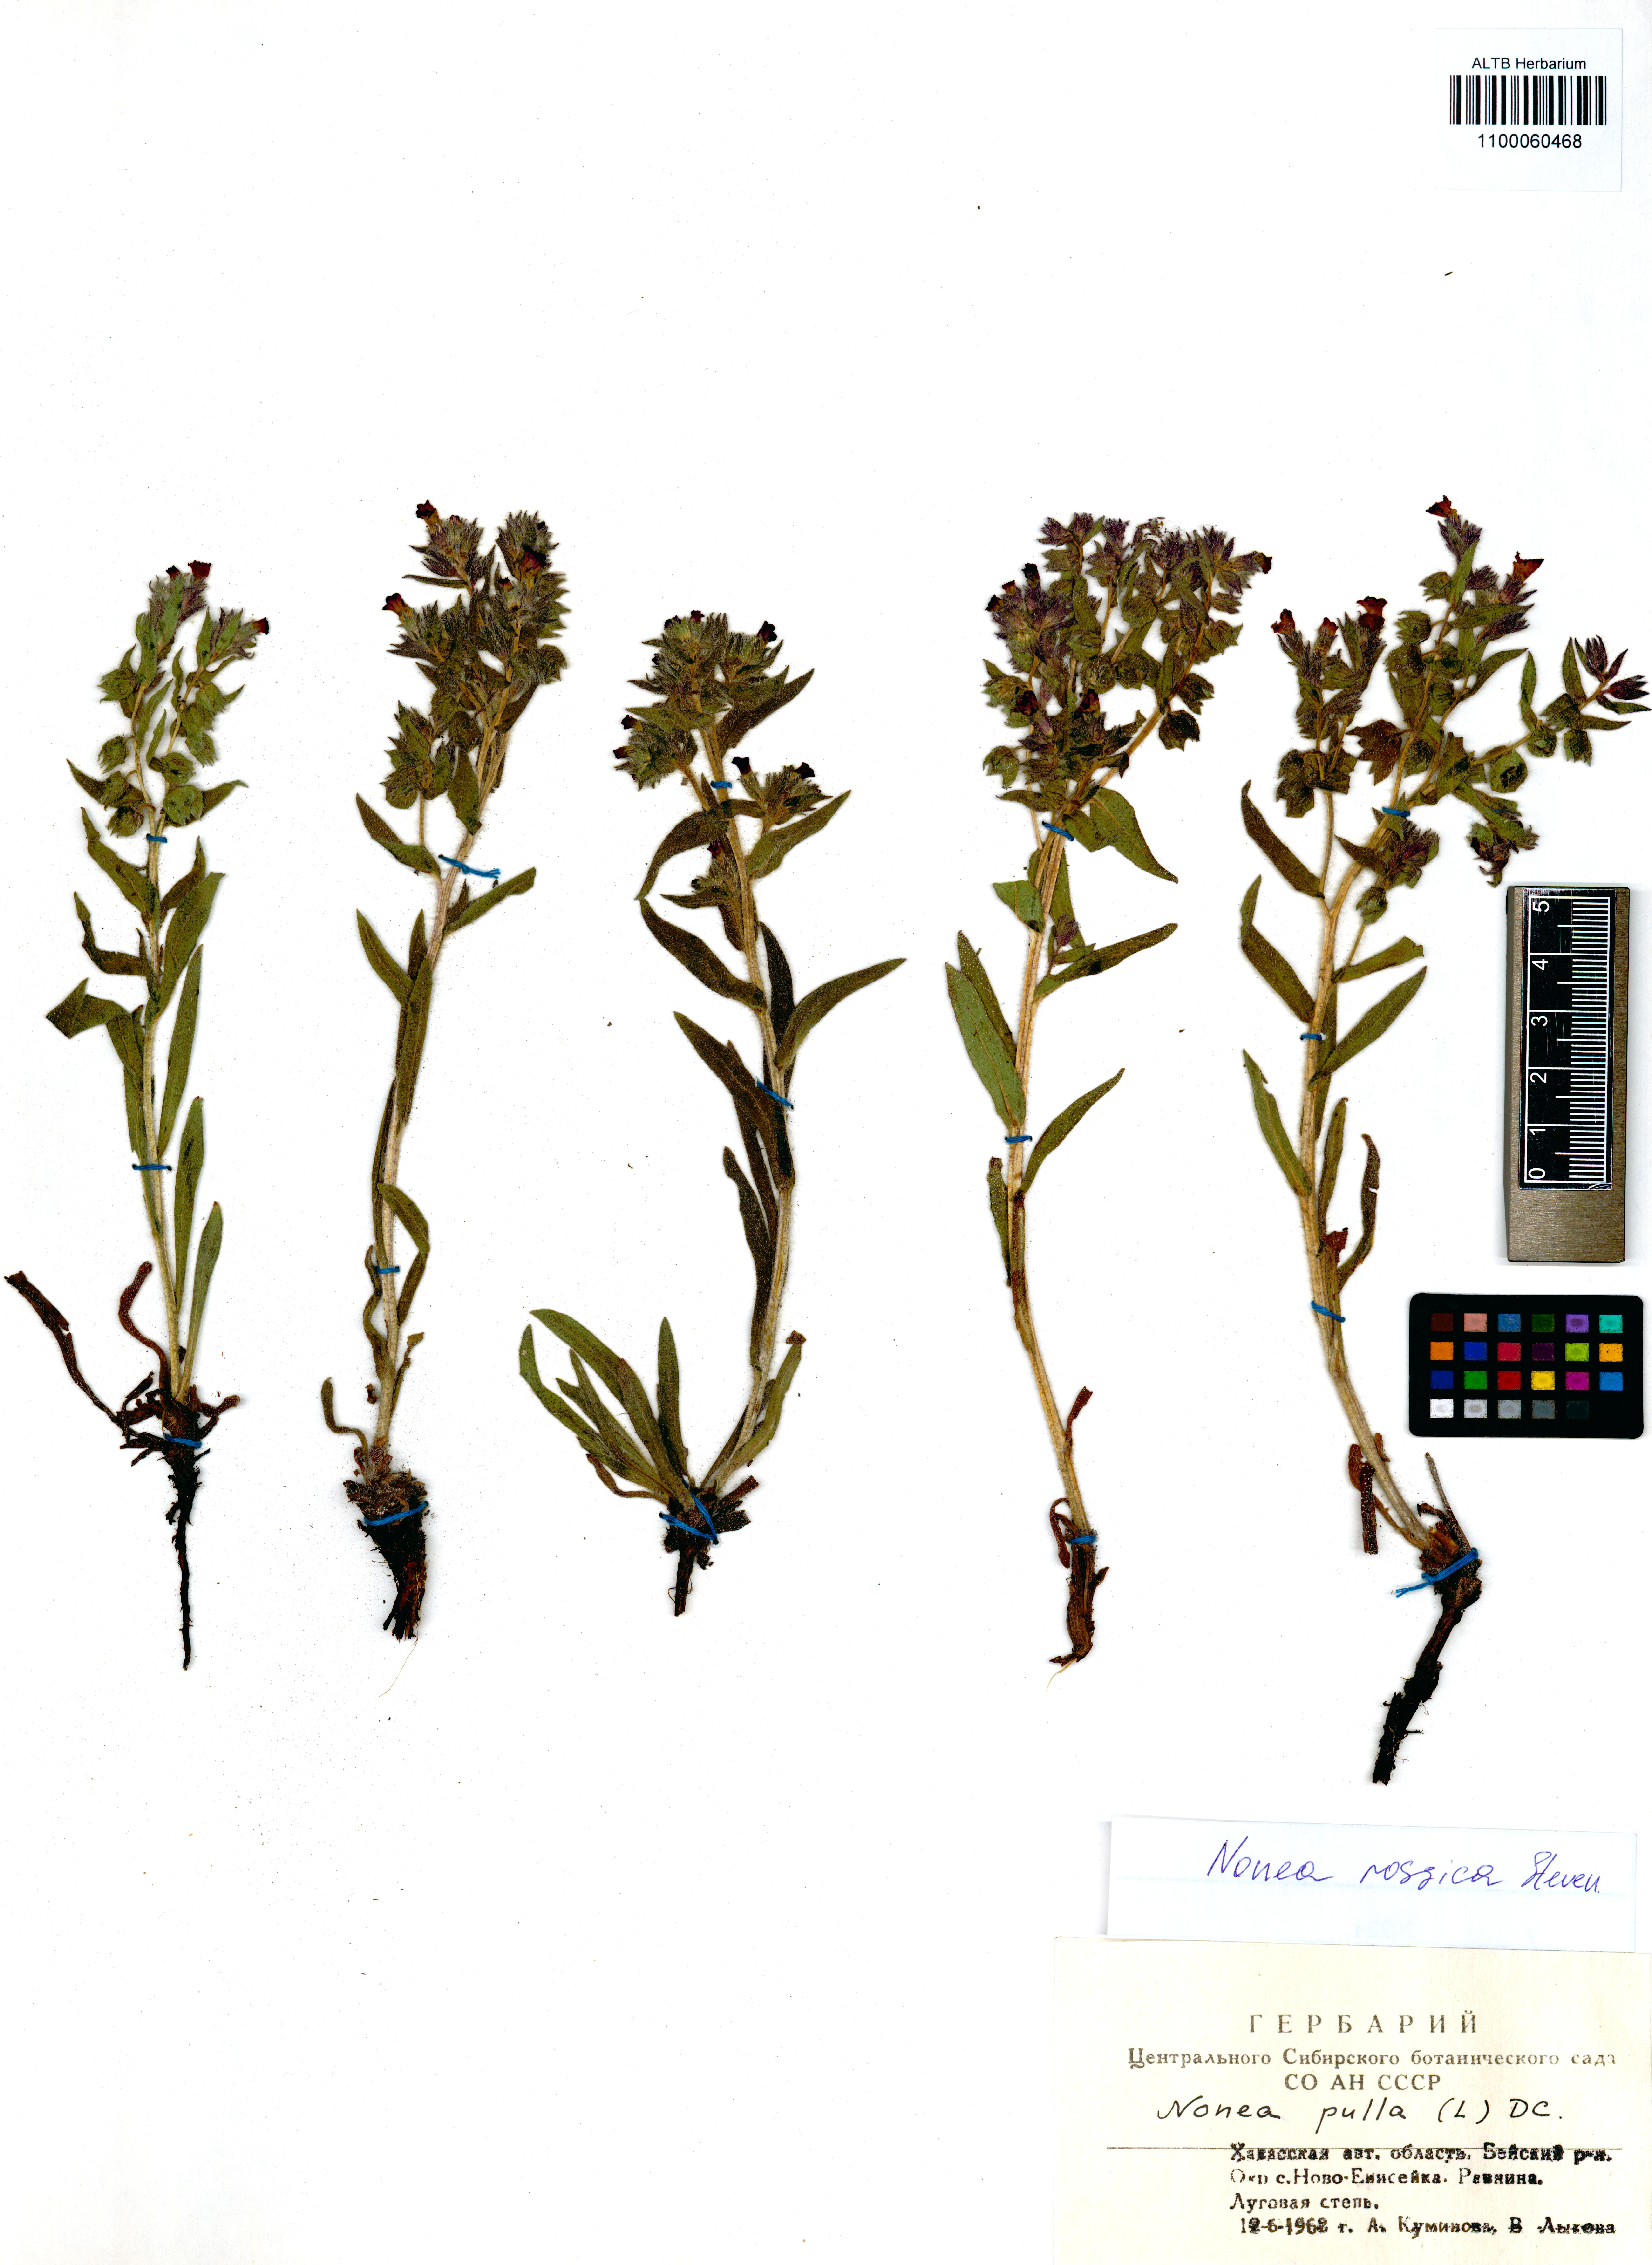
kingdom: Plantae
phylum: Tracheophyta
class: Magnoliopsida
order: Boraginales
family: Boraginaceae
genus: Nonea
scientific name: Nonea pulla
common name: Brown nonea
